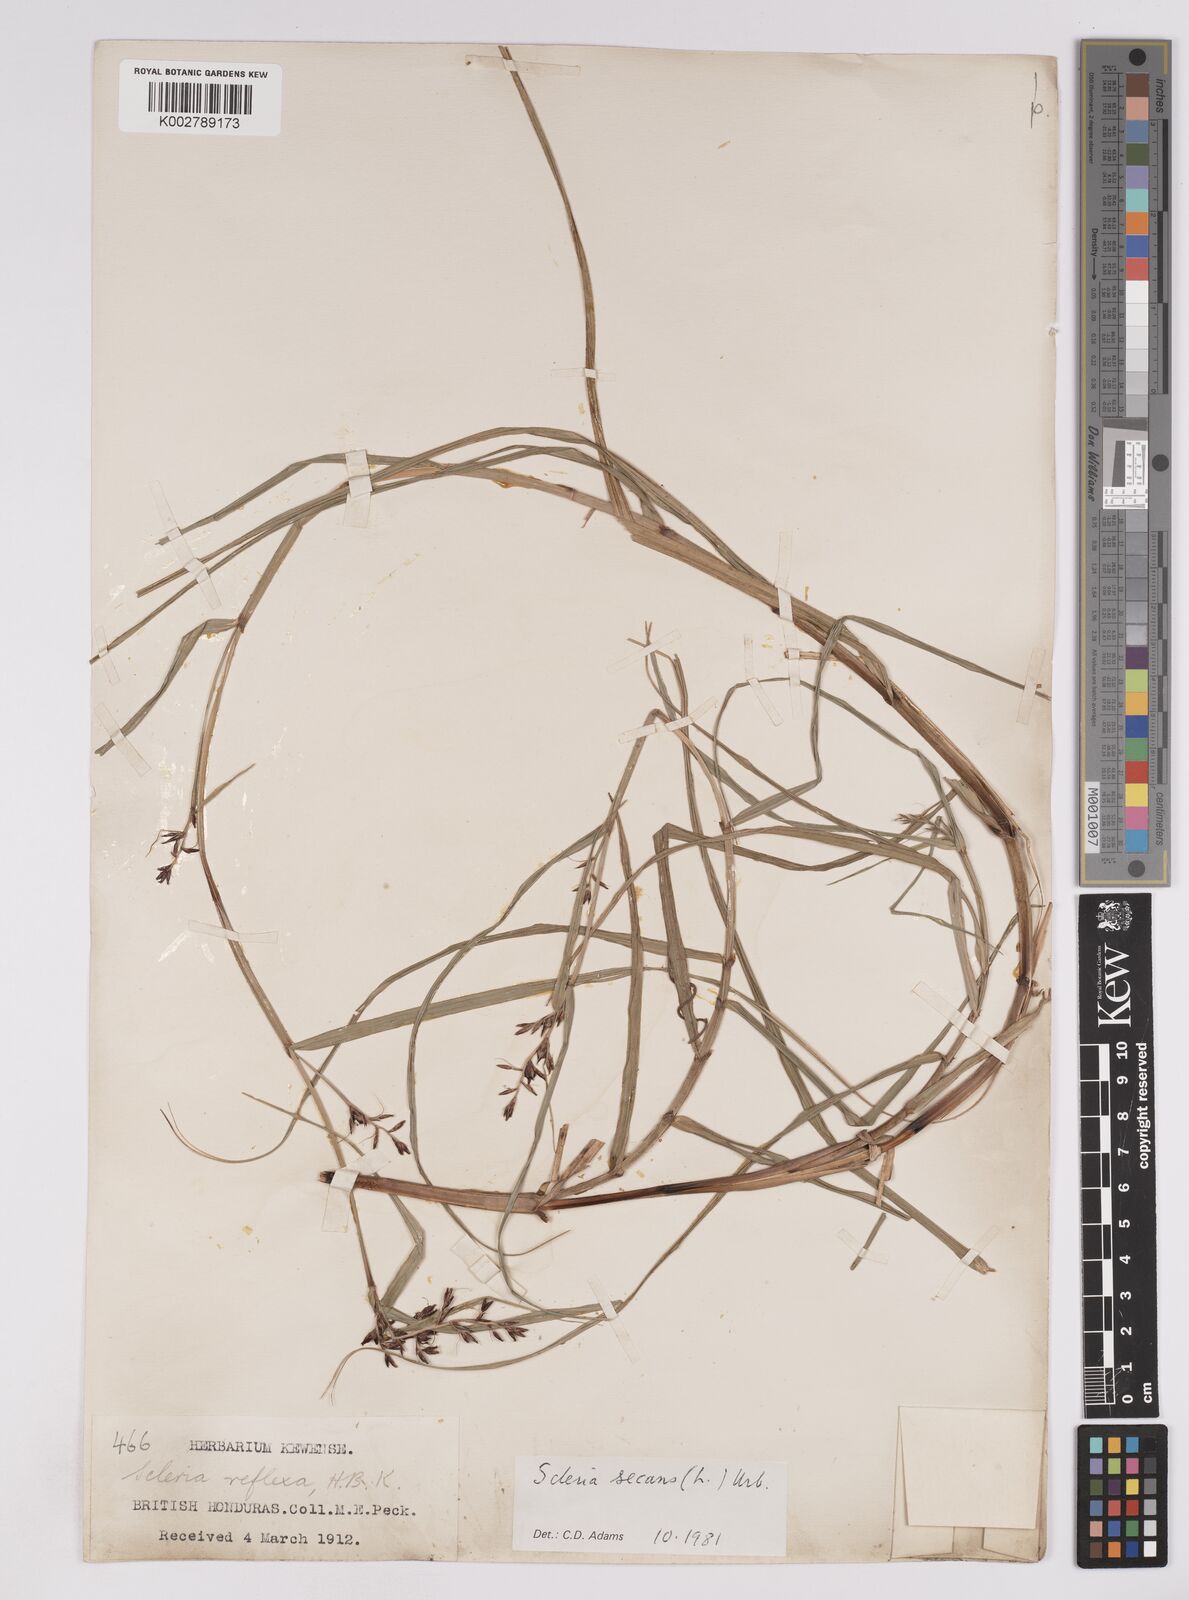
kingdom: Plantae
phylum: Tracheophyta
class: Liliopsida
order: Poales
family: Cyperaceae
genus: Scleria
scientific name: Scleria secans
